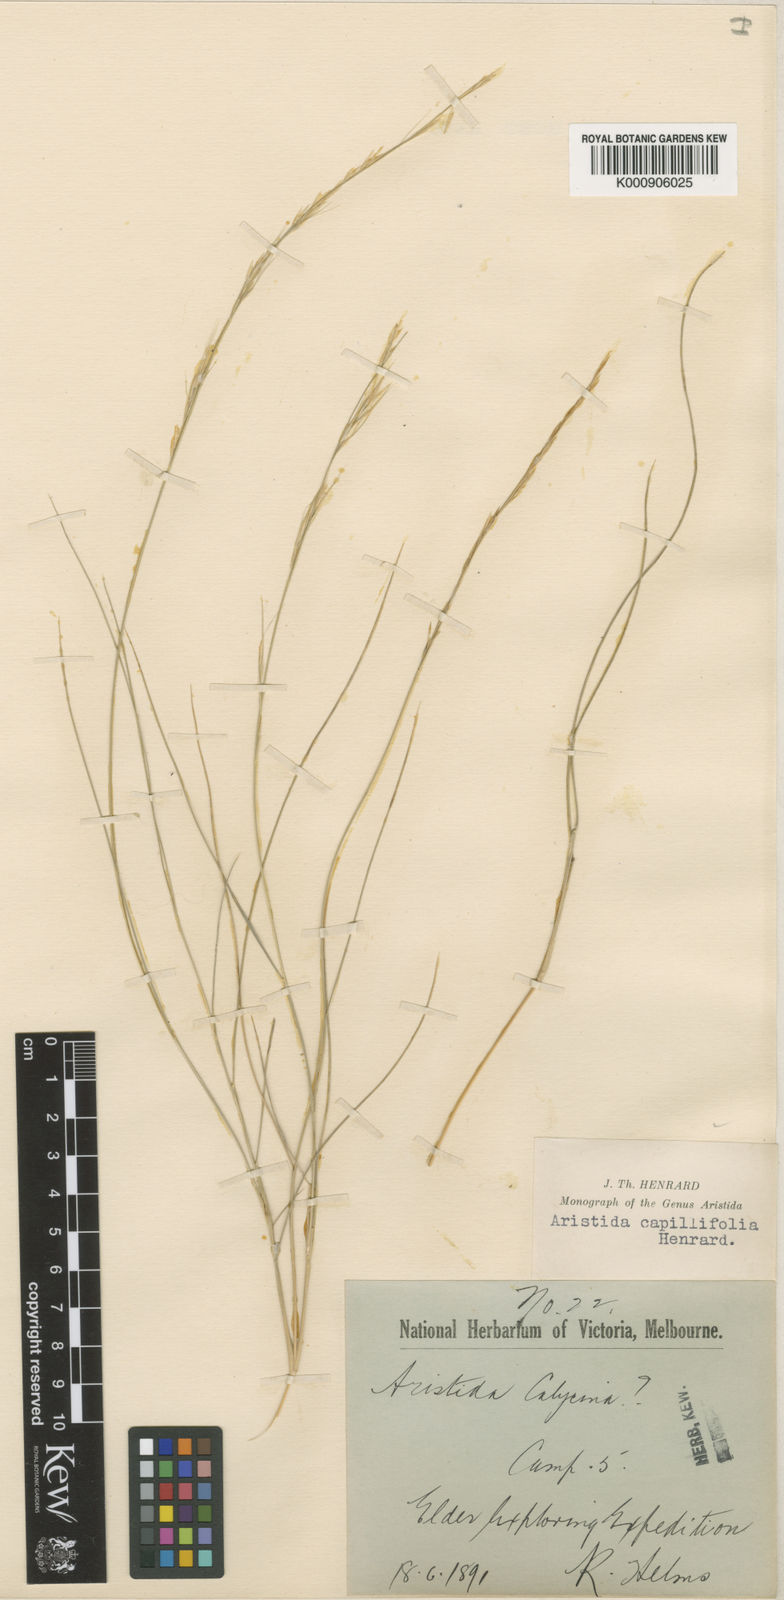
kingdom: Plantae
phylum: Tracheophyta
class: Liliopsida
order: Poales
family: Poaceae
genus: Aristida
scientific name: Aristida capillifolia
